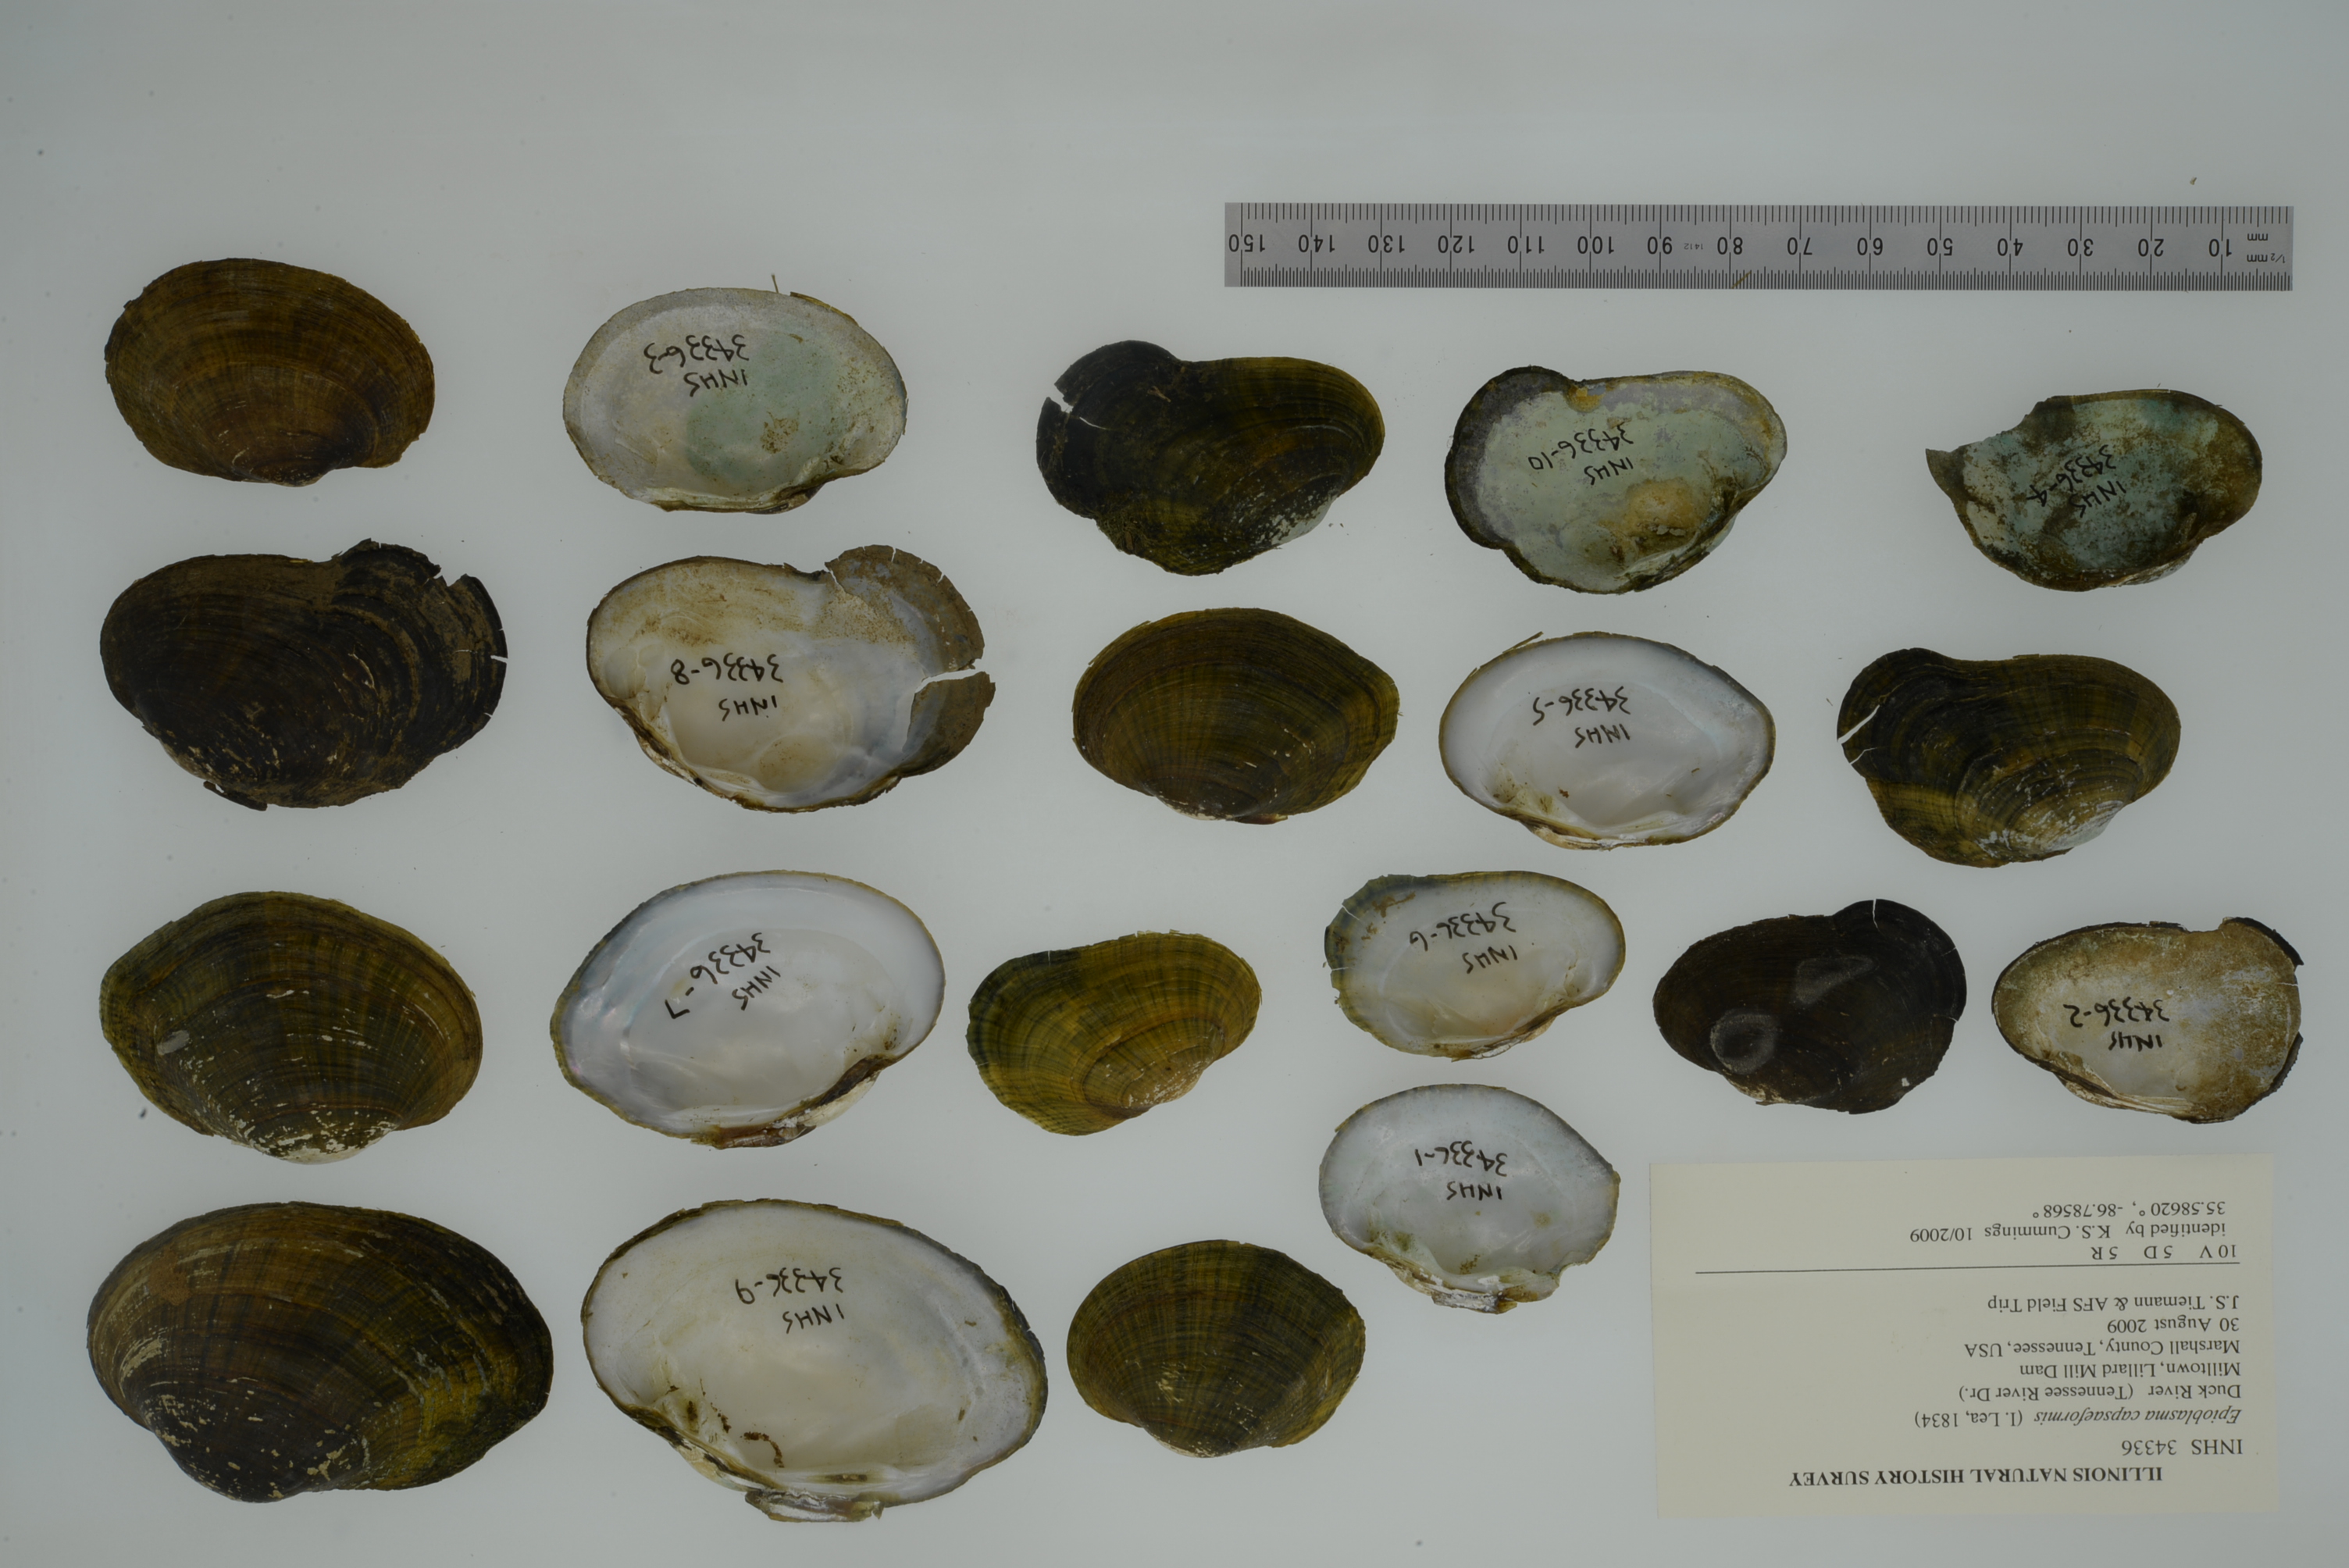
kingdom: Animalia
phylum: Mollusca
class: Gastropoda
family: Pleuroceridae
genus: Lithasia
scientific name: Lithasia geniculata
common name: Geniculate river snail
